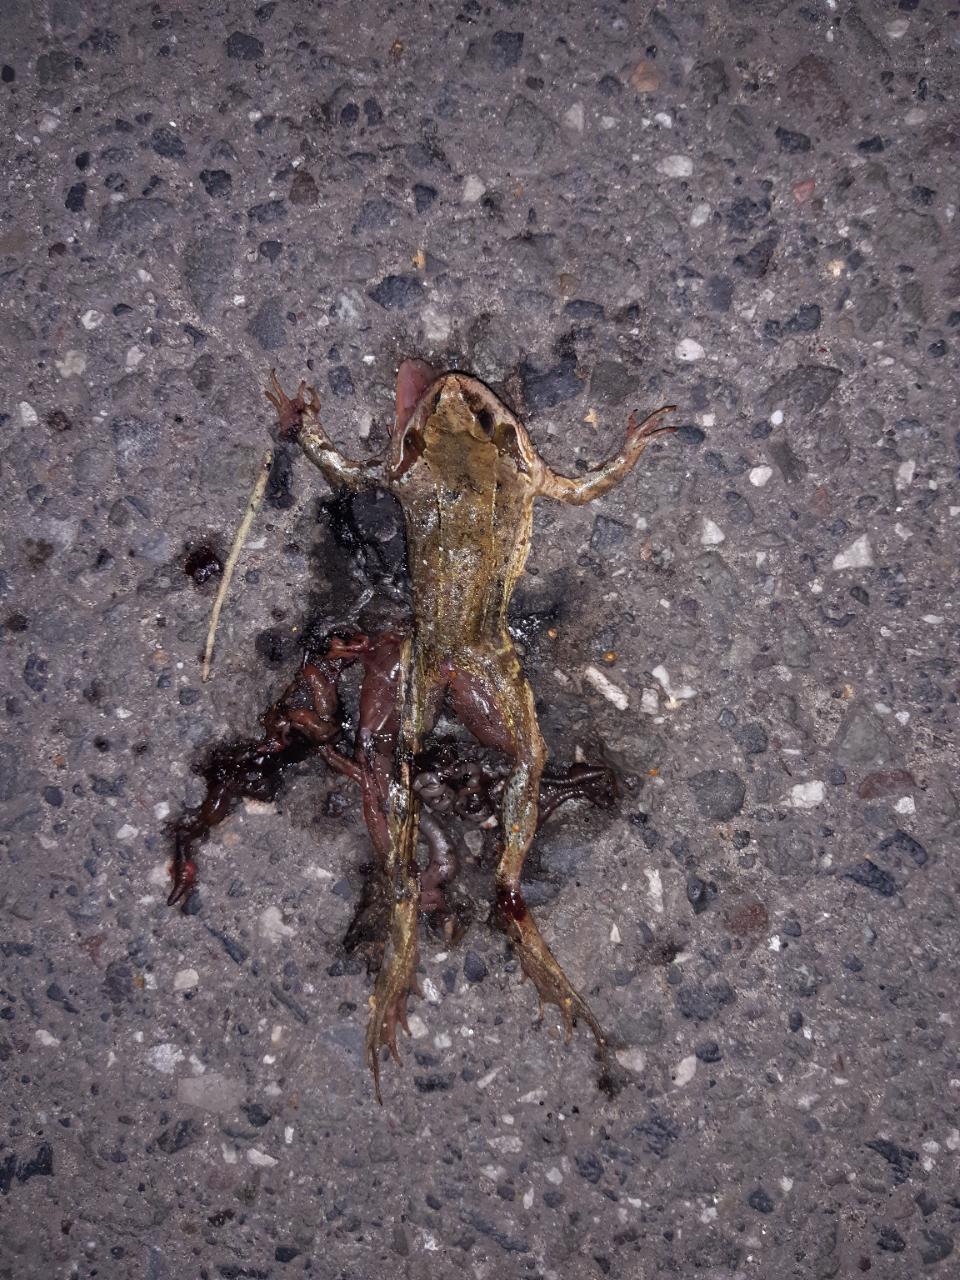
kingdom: Animalia
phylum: Chordata
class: Amphibia
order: Anura
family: Ranidae
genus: Rana
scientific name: Rana temporaria
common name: Common frog
